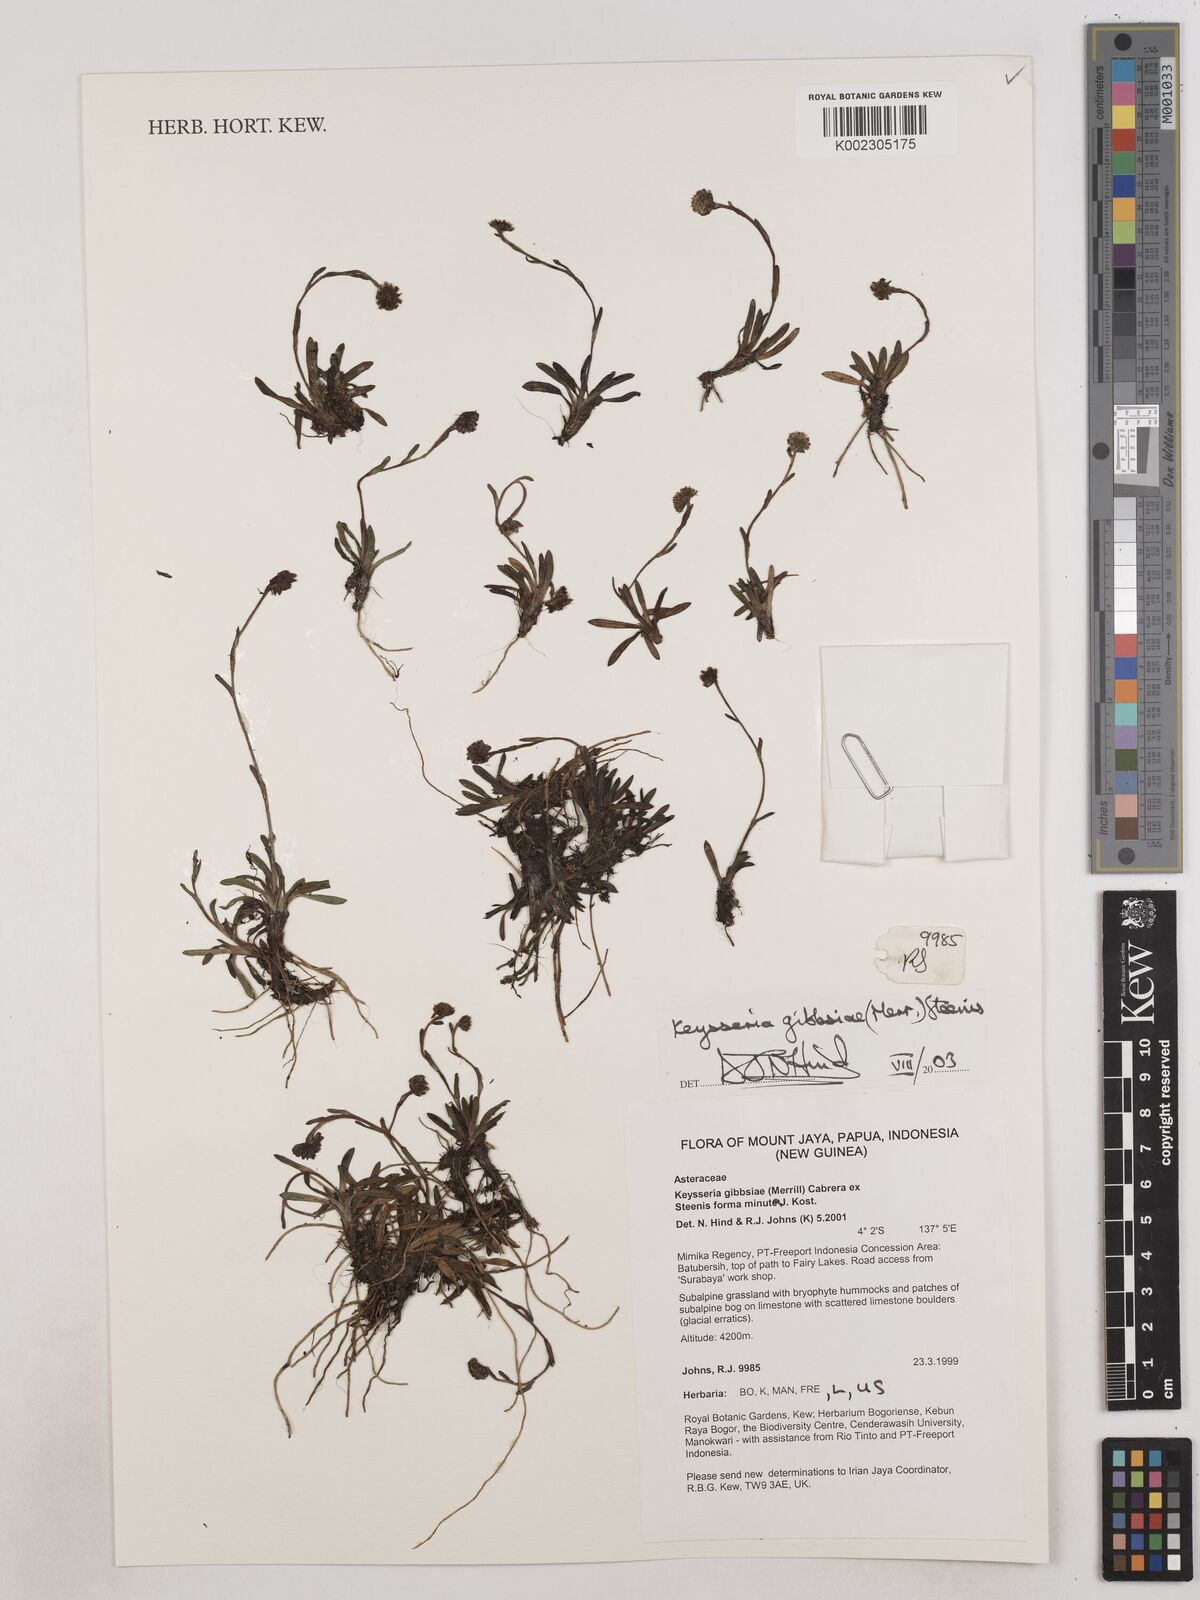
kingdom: Plantae
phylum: Tracheophyta
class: Magnoliopsida
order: Asterales
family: Asteraceae
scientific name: Asteraceae
